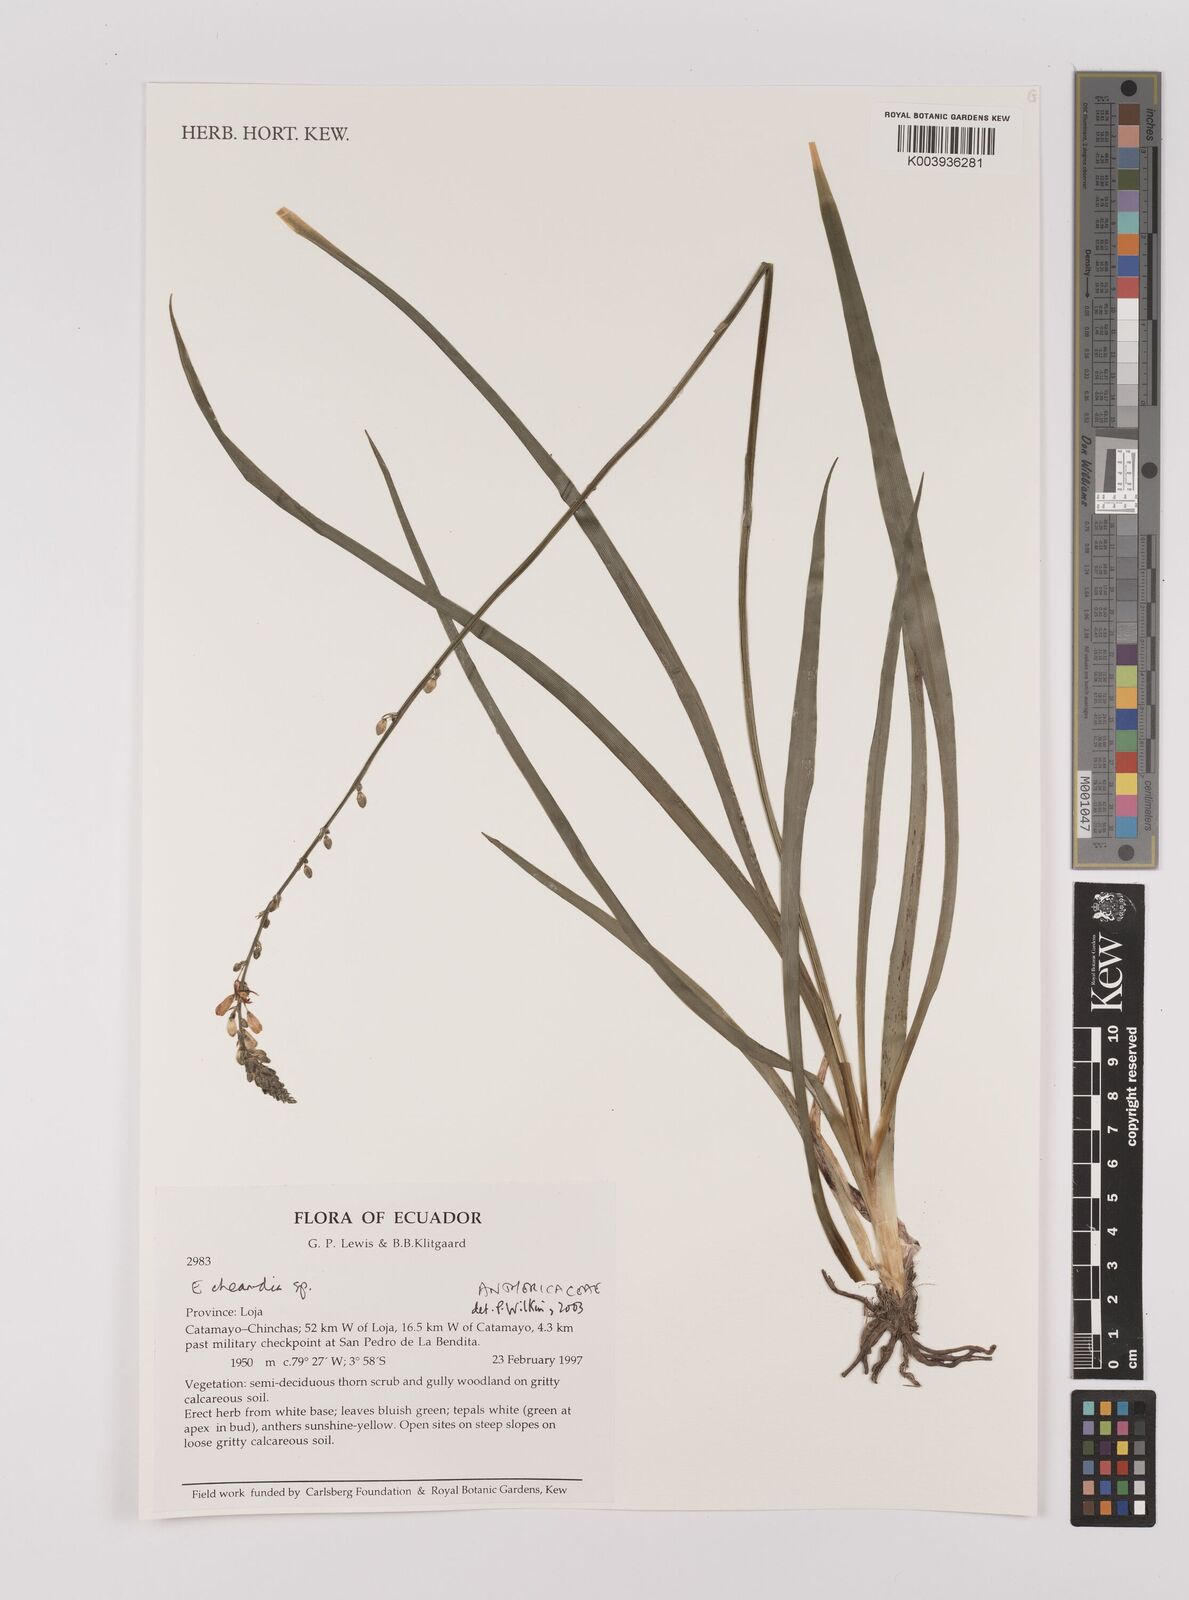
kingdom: Plantae
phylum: Tracheophyta
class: Liliopsida
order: Asparagales
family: Asparagaceae
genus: Echeandia
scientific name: Echeandia
